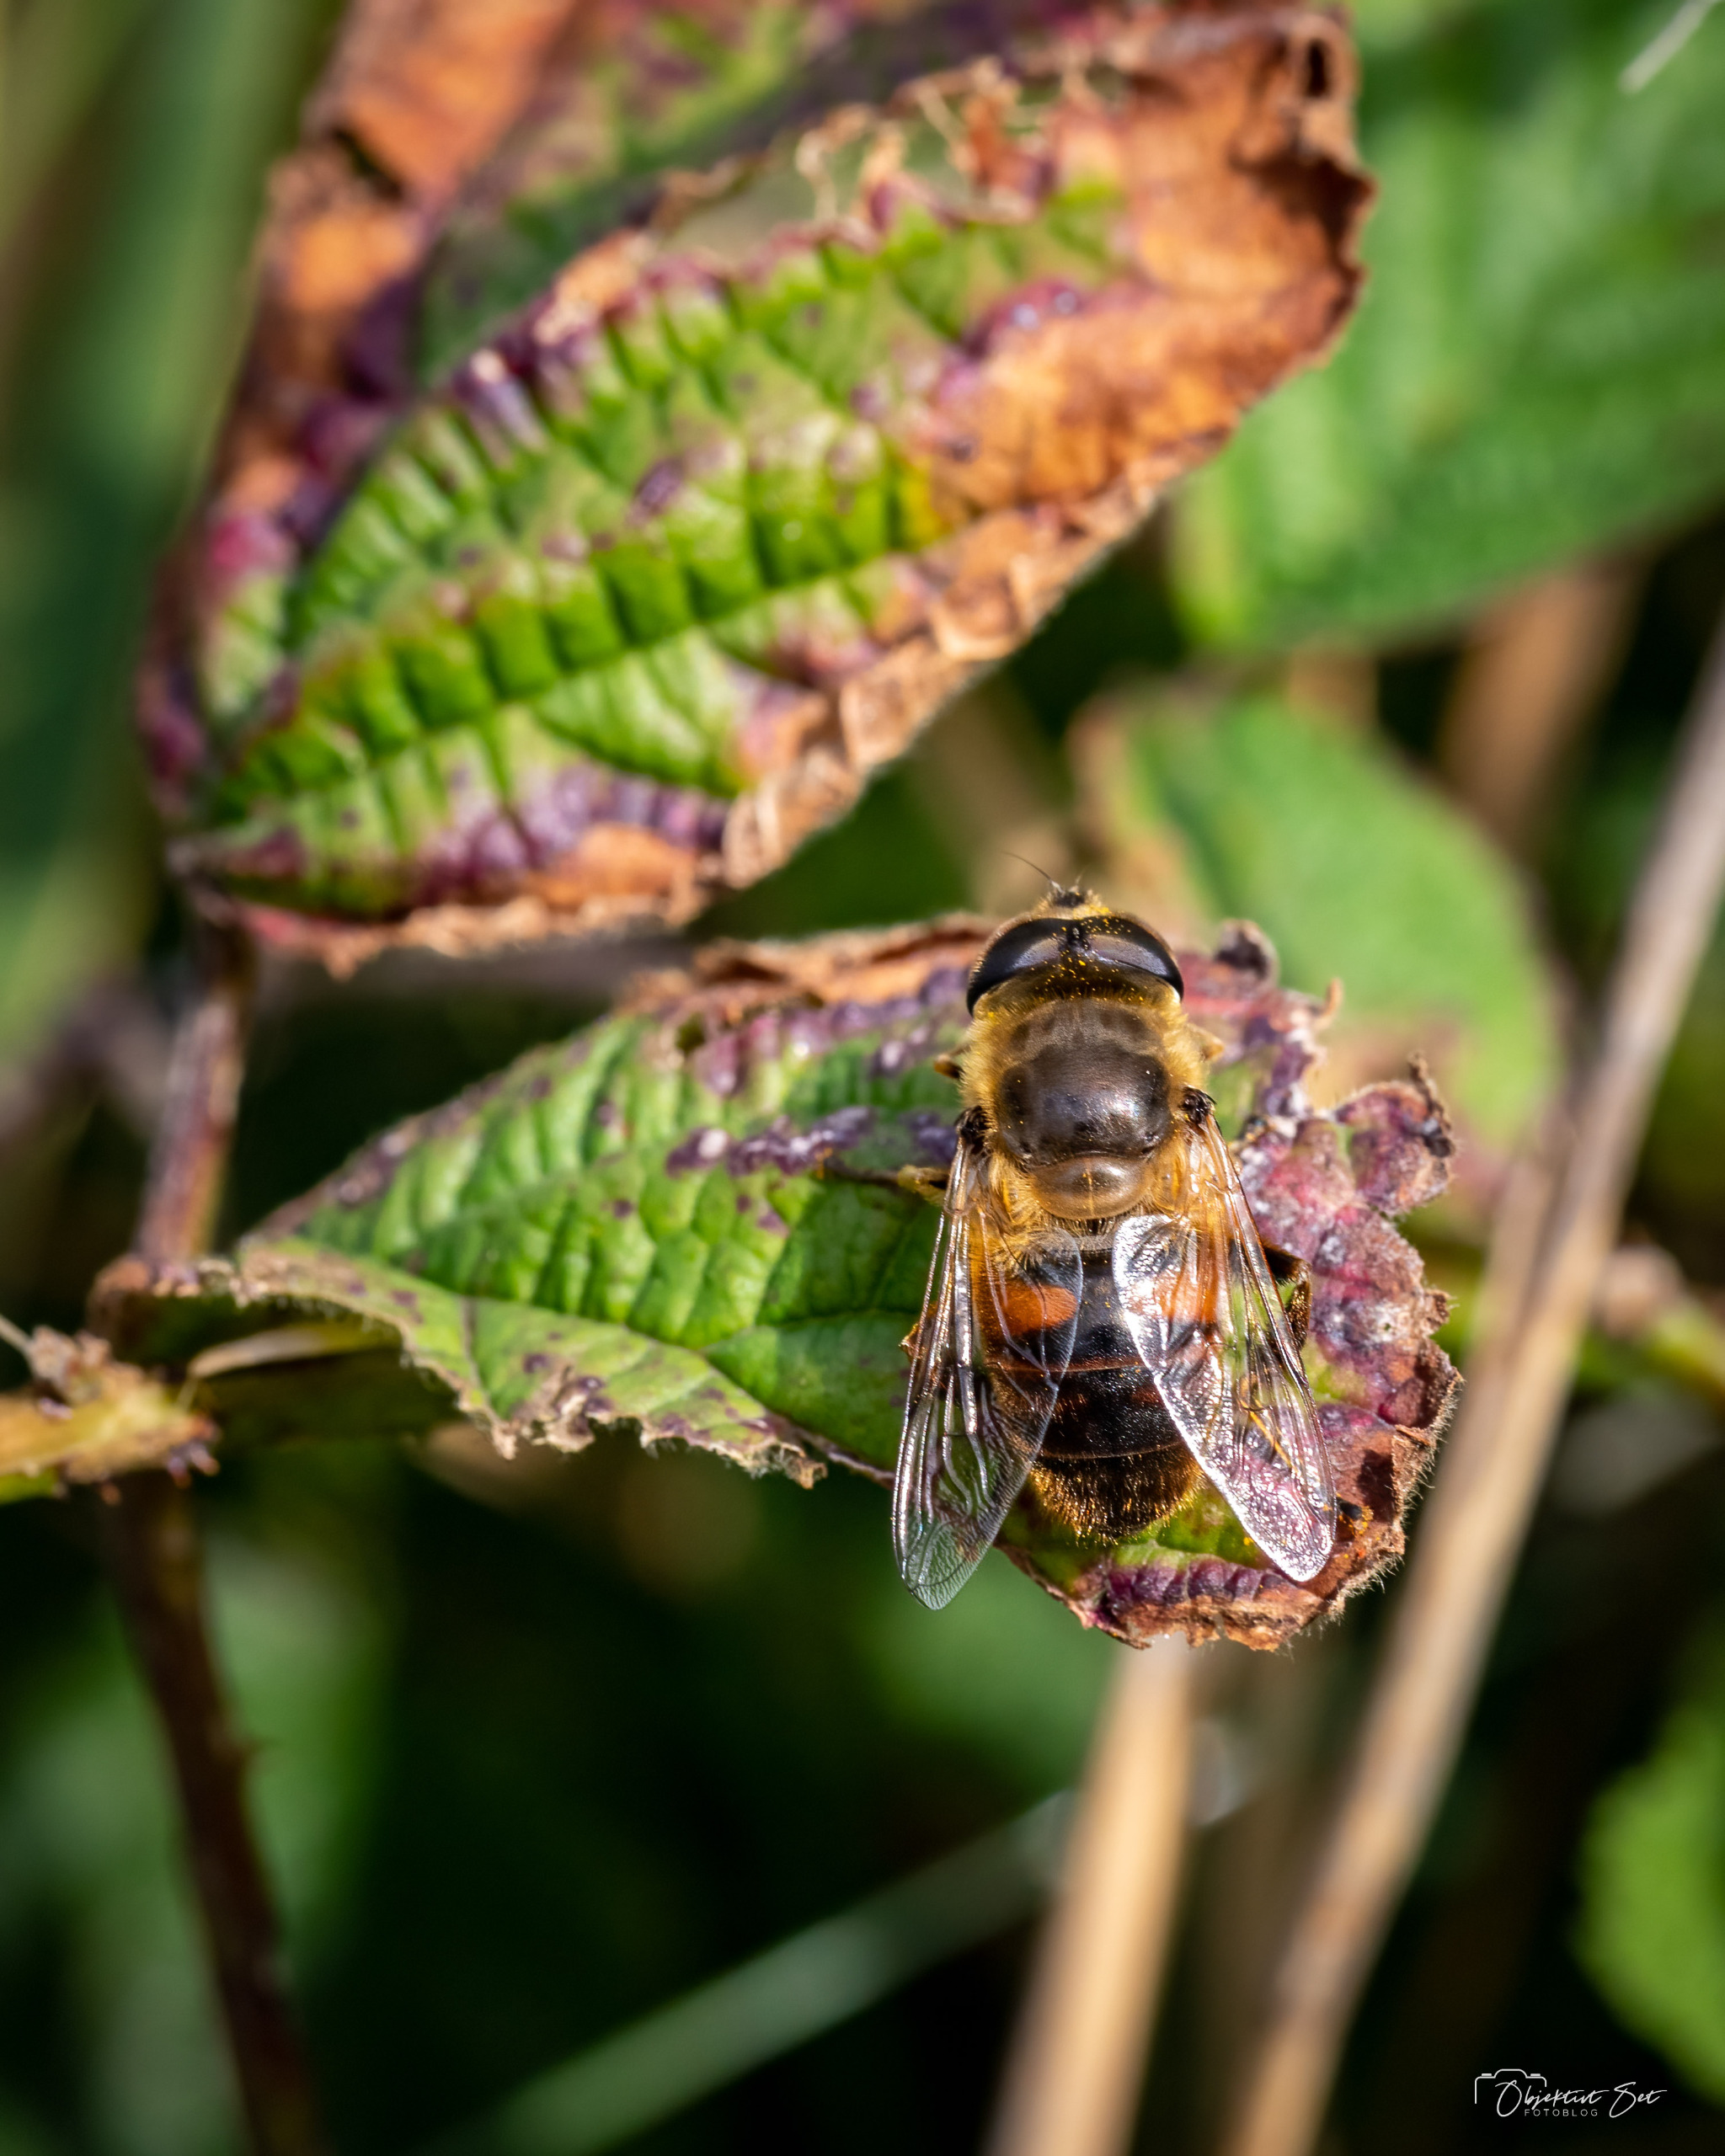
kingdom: Animalia
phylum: Arthropoda
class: Insecta
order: Diptera
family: Syrphidae
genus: Eristalis
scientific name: Eristalis tenax
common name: Droneflue
